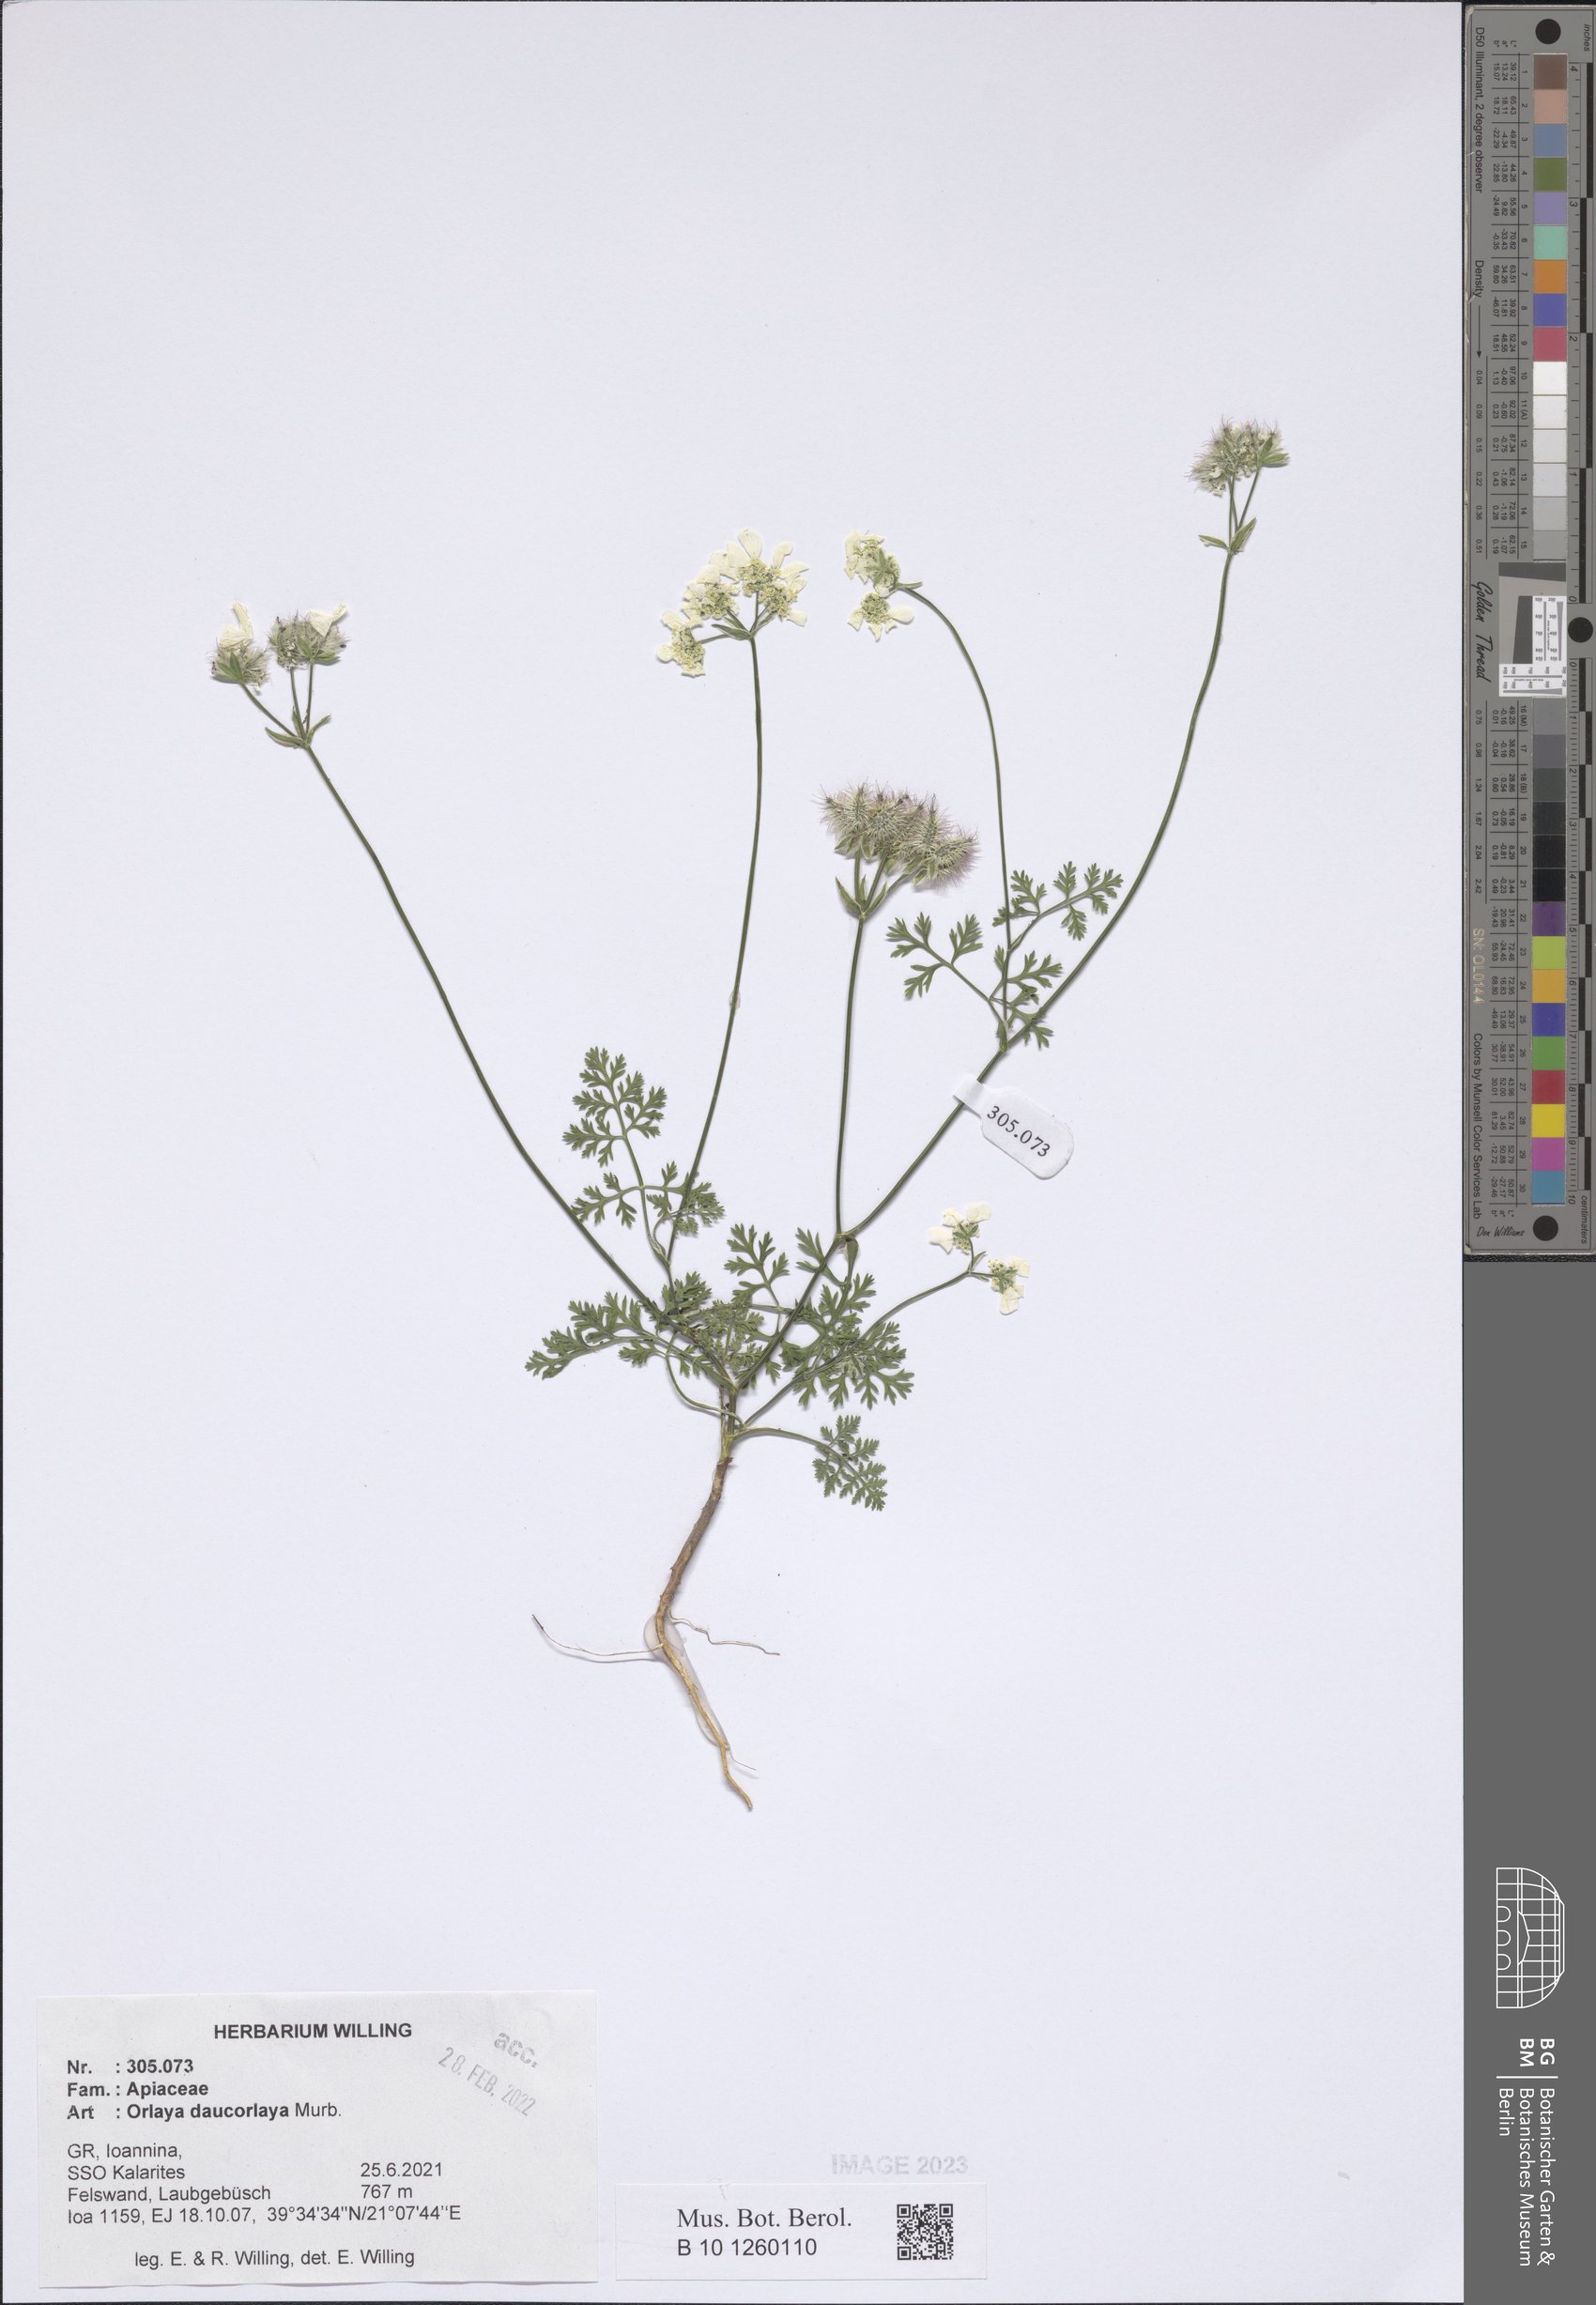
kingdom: Plantae
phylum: Tracheophyta
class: Magnoliopsida
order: Apiales
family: Apiaceae
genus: Orlaya
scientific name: Orlaya daucorlaya
